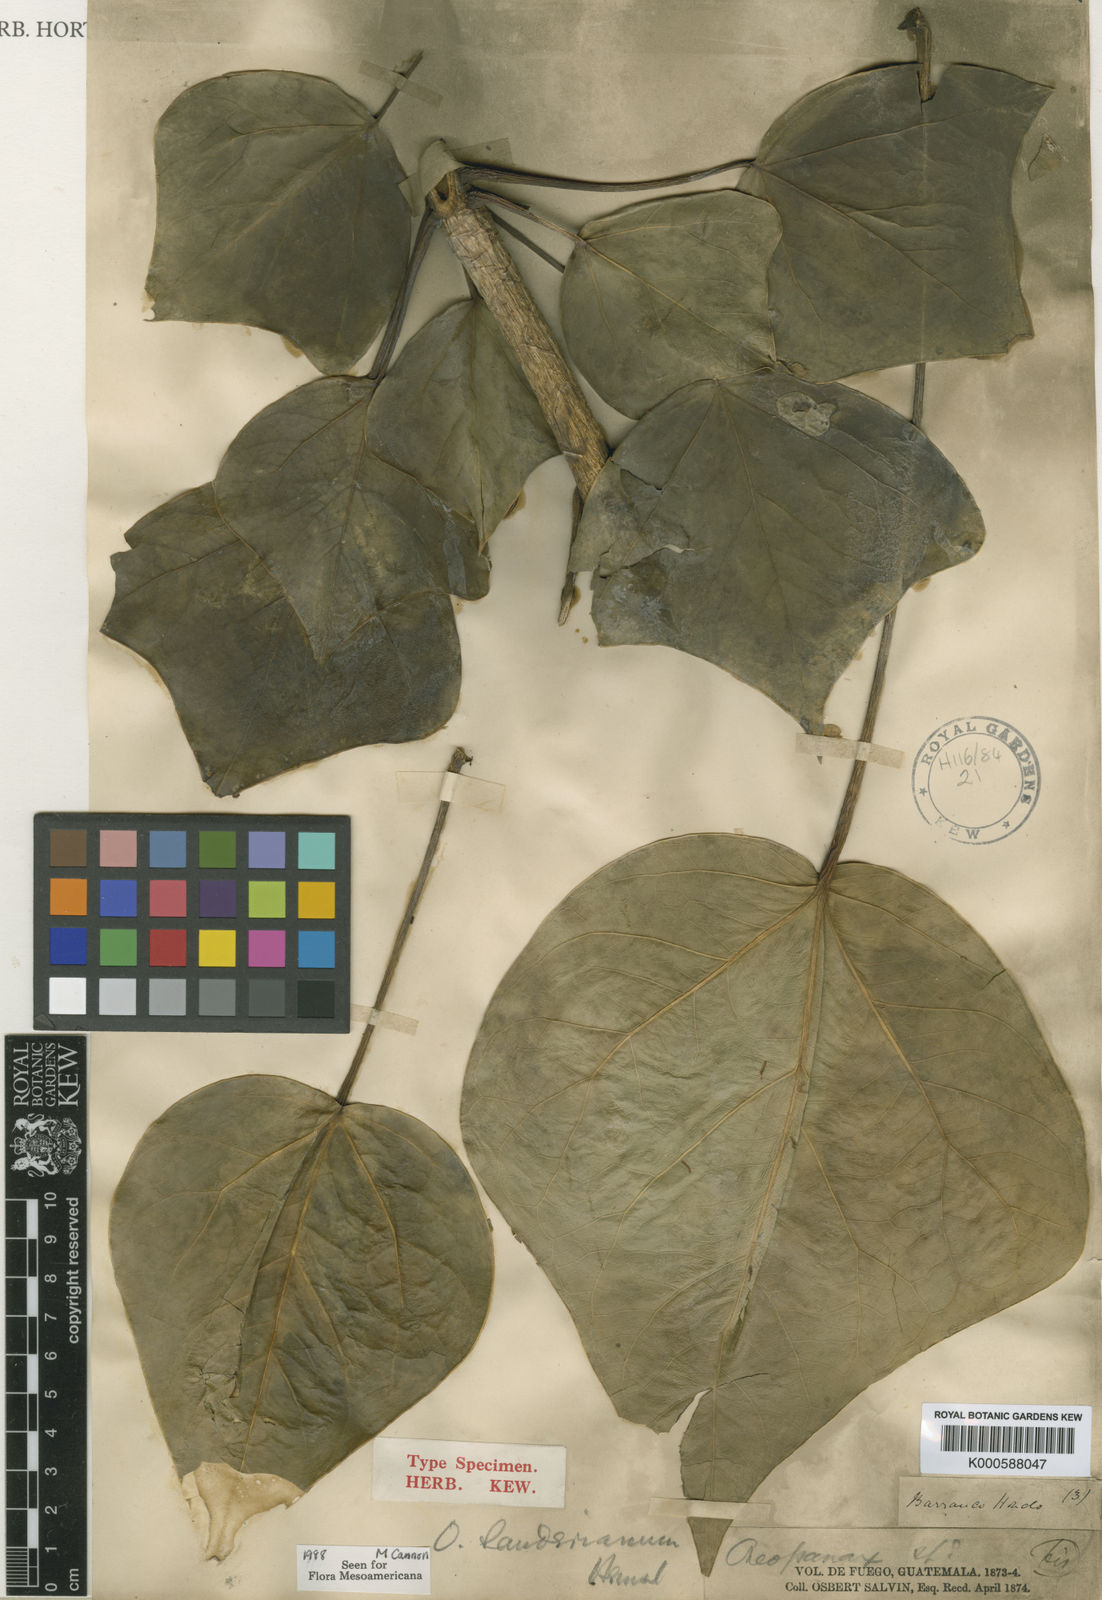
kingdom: Plantae
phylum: Tracheophyta
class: Magnoliopsida
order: Apiales
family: Araliaceae
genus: Oreopanax
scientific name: Oreopanax sanderianus
